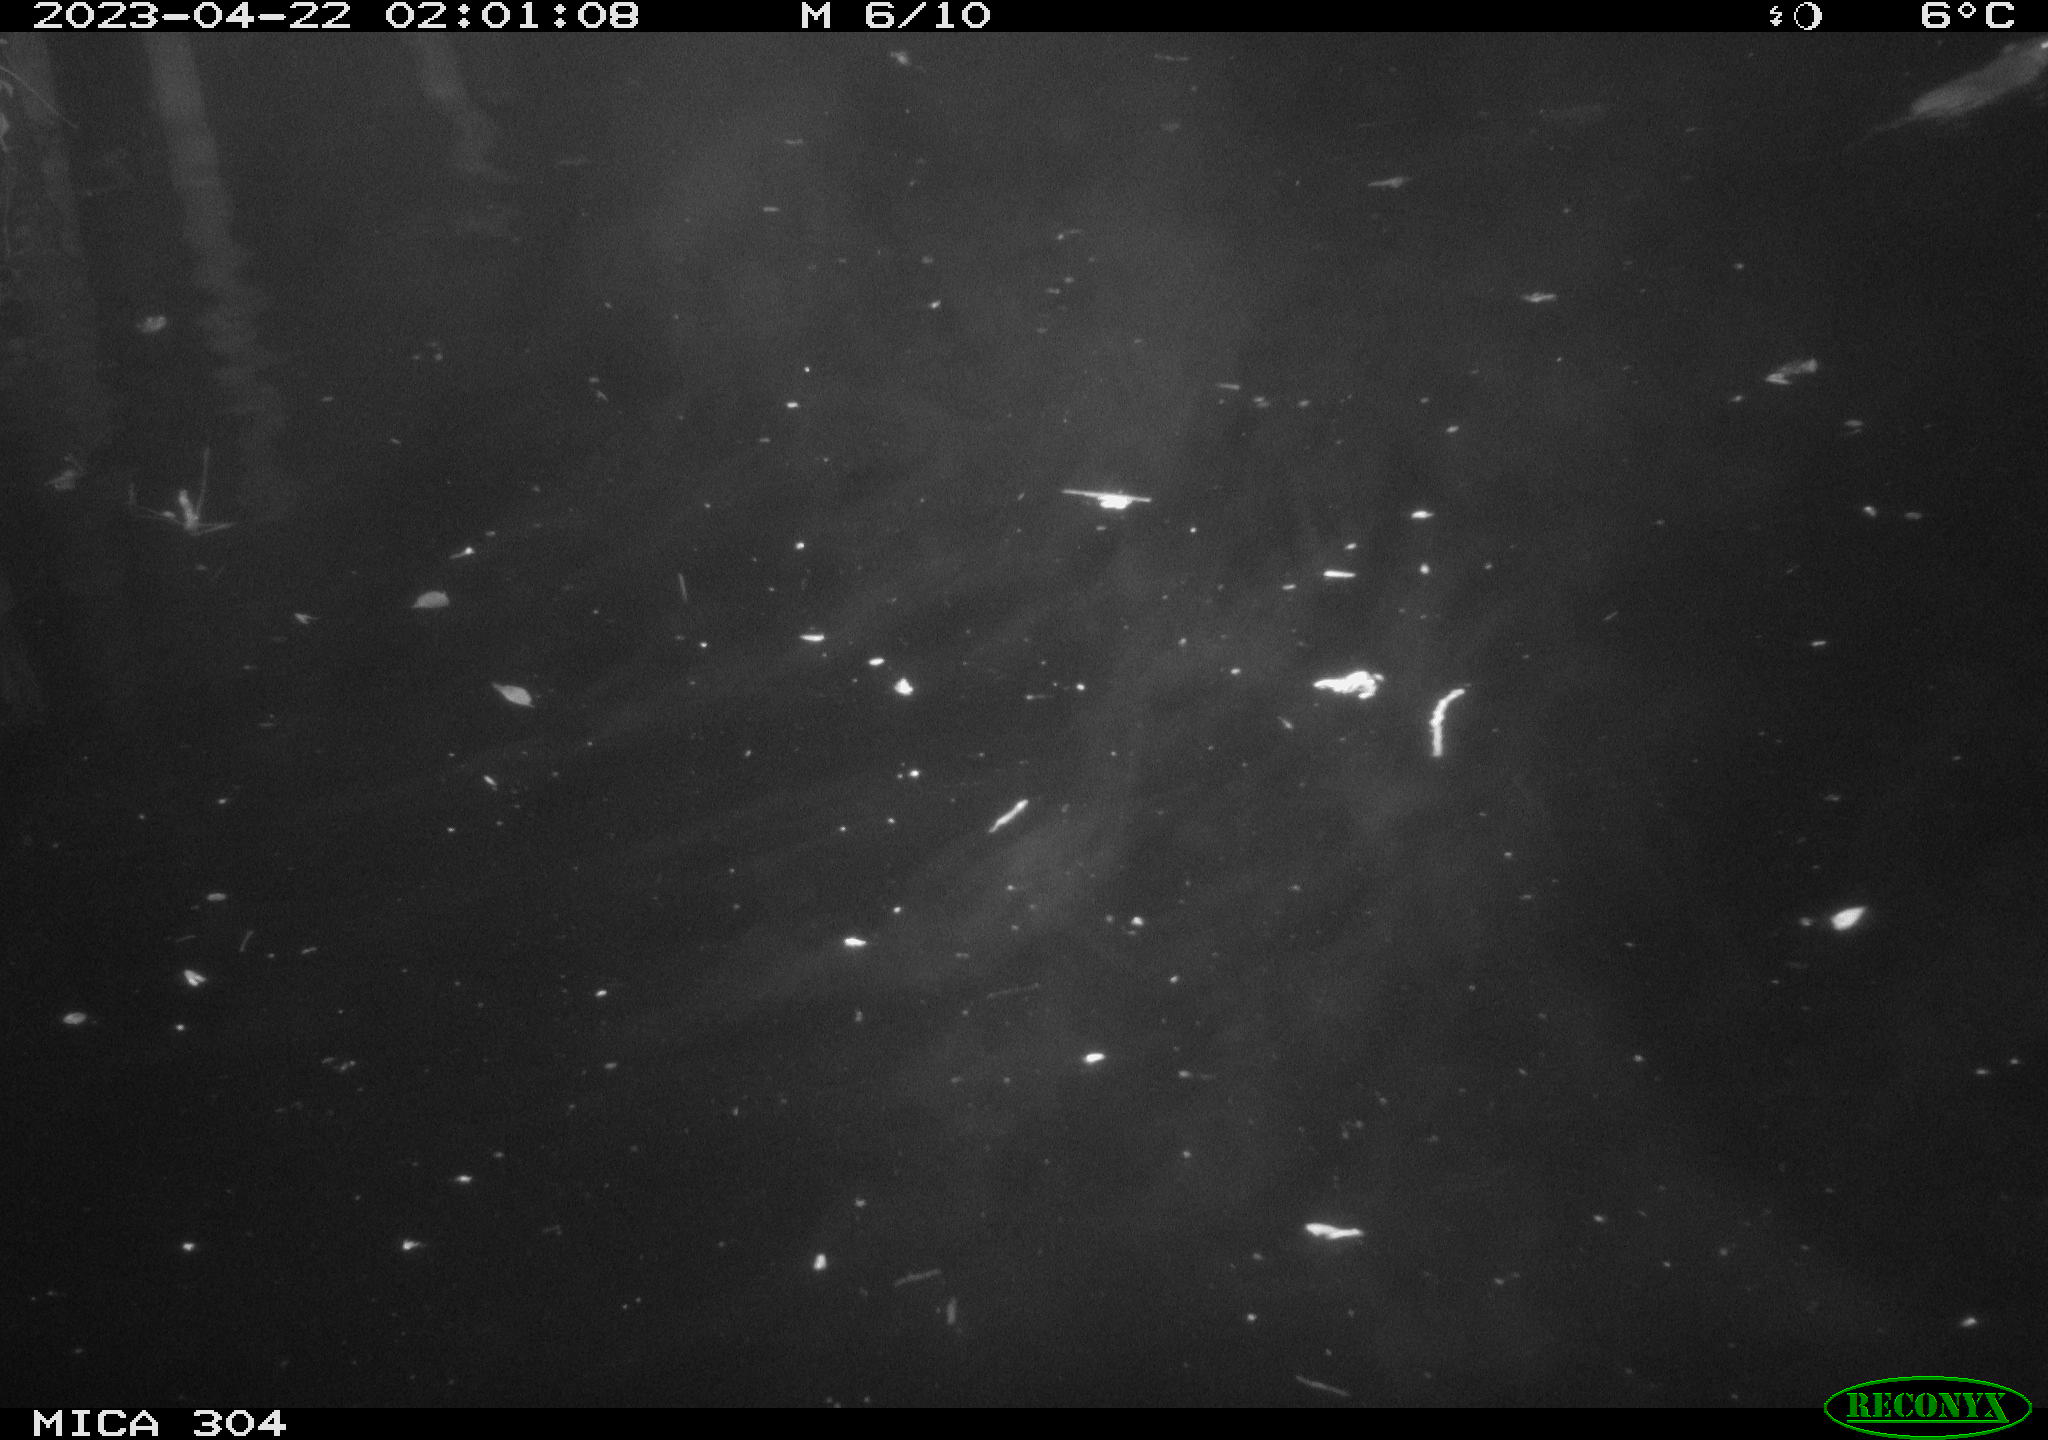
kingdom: Animalia
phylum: Chordata
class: Mammalia
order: Rodentia
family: Muridae
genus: Rattus
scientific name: Rattus norvegicus
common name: Brown rat
